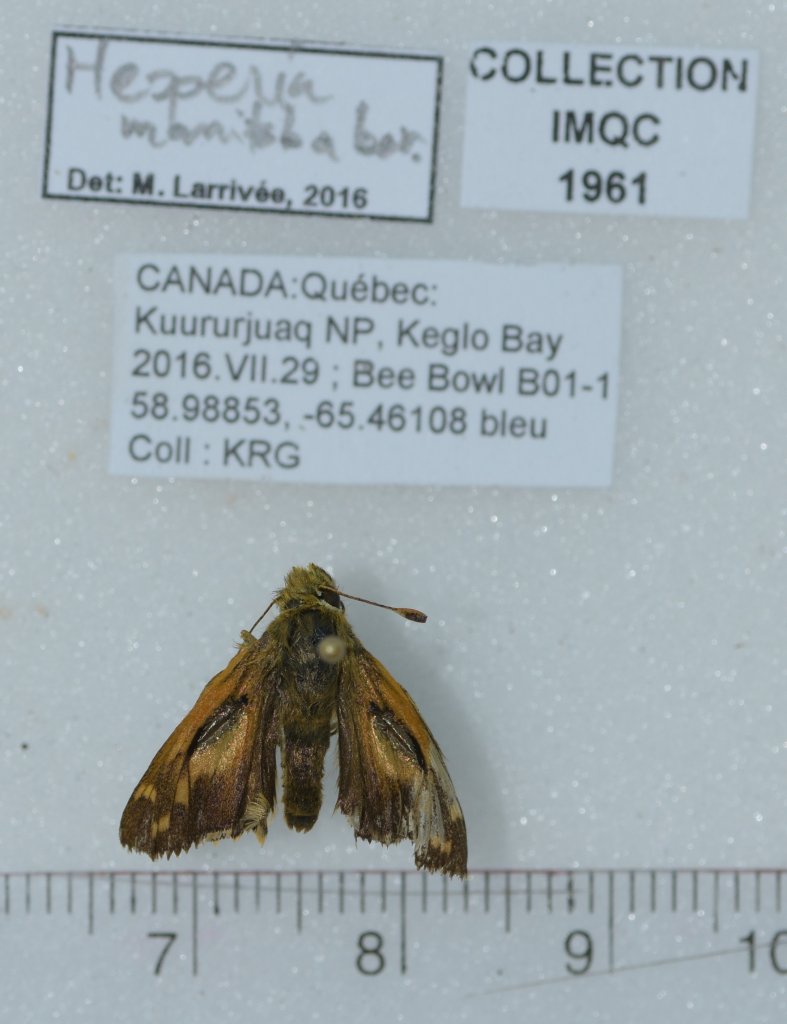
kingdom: Animalia
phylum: Arthropoda
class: Insecta
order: Lepidoptera
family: Hesperiidae
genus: Hesperia
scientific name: Hesperia comma
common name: Common Branded Skipper
